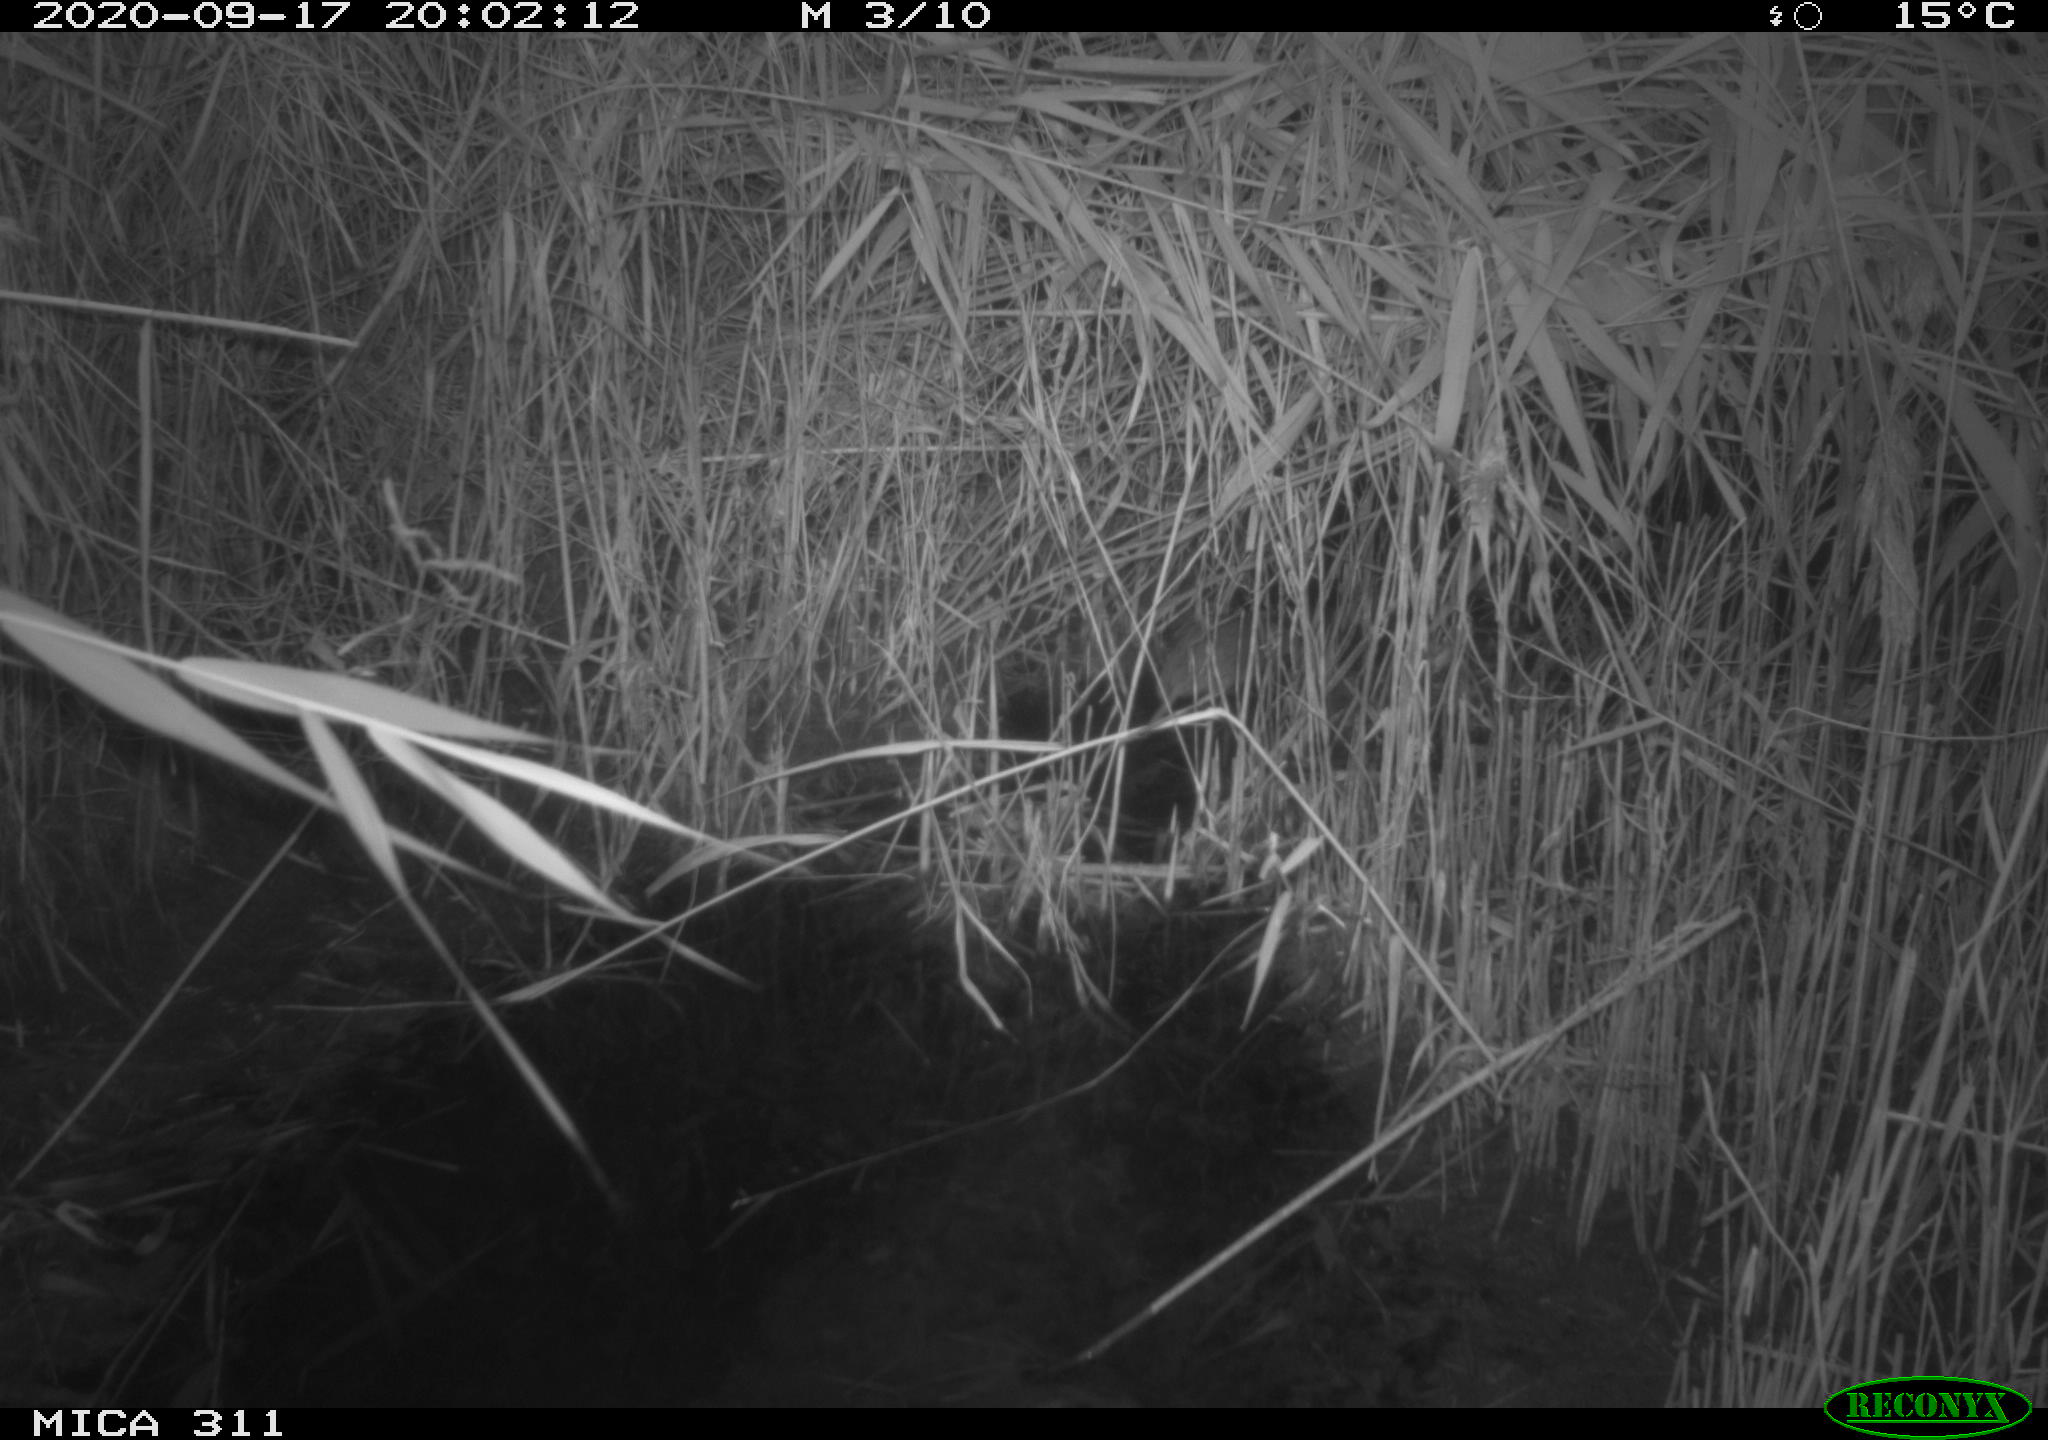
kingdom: Animalia
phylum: Chordata
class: Mammalia
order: Rodentia
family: Muridae
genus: Rattus
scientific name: Rattus norvegicus
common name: Brown rat
